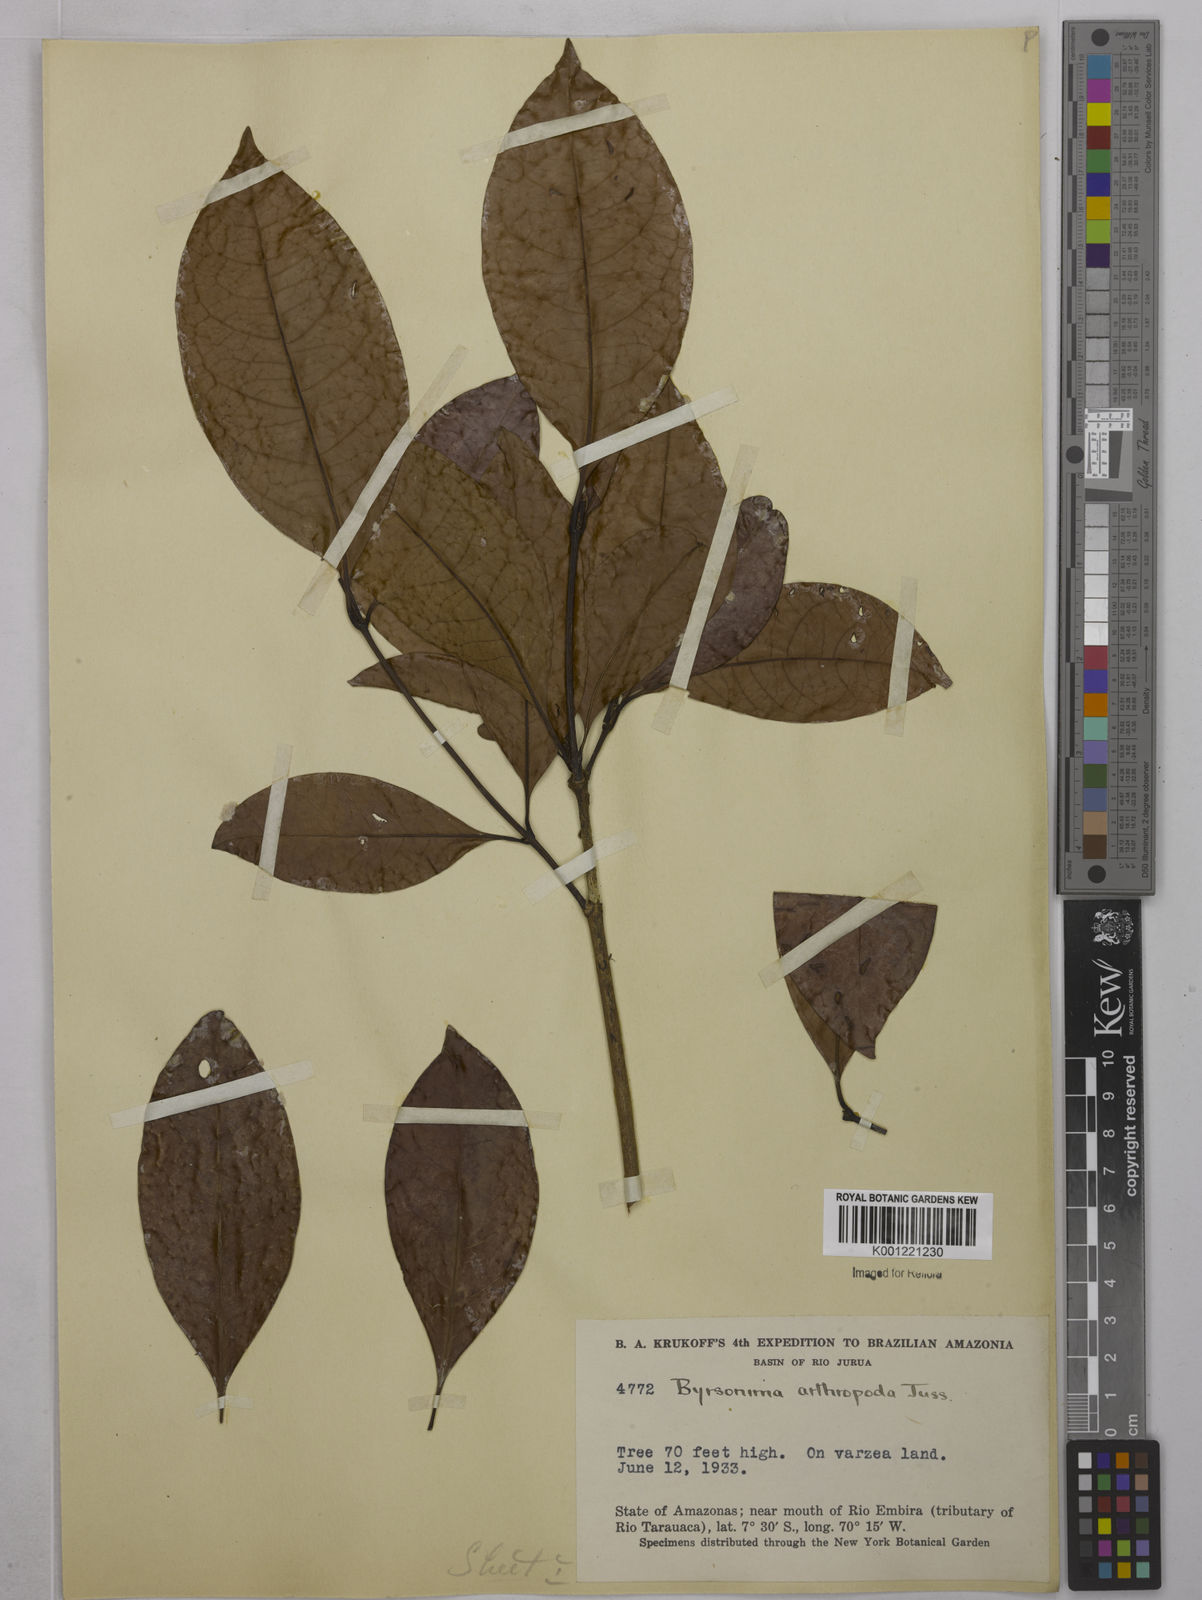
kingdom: Plantae
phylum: Tracheophyta
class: Magnoliopsida
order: Malpighiales
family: Malpighiaceae
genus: Byrsonima
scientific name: Byrsonima arthropoda
